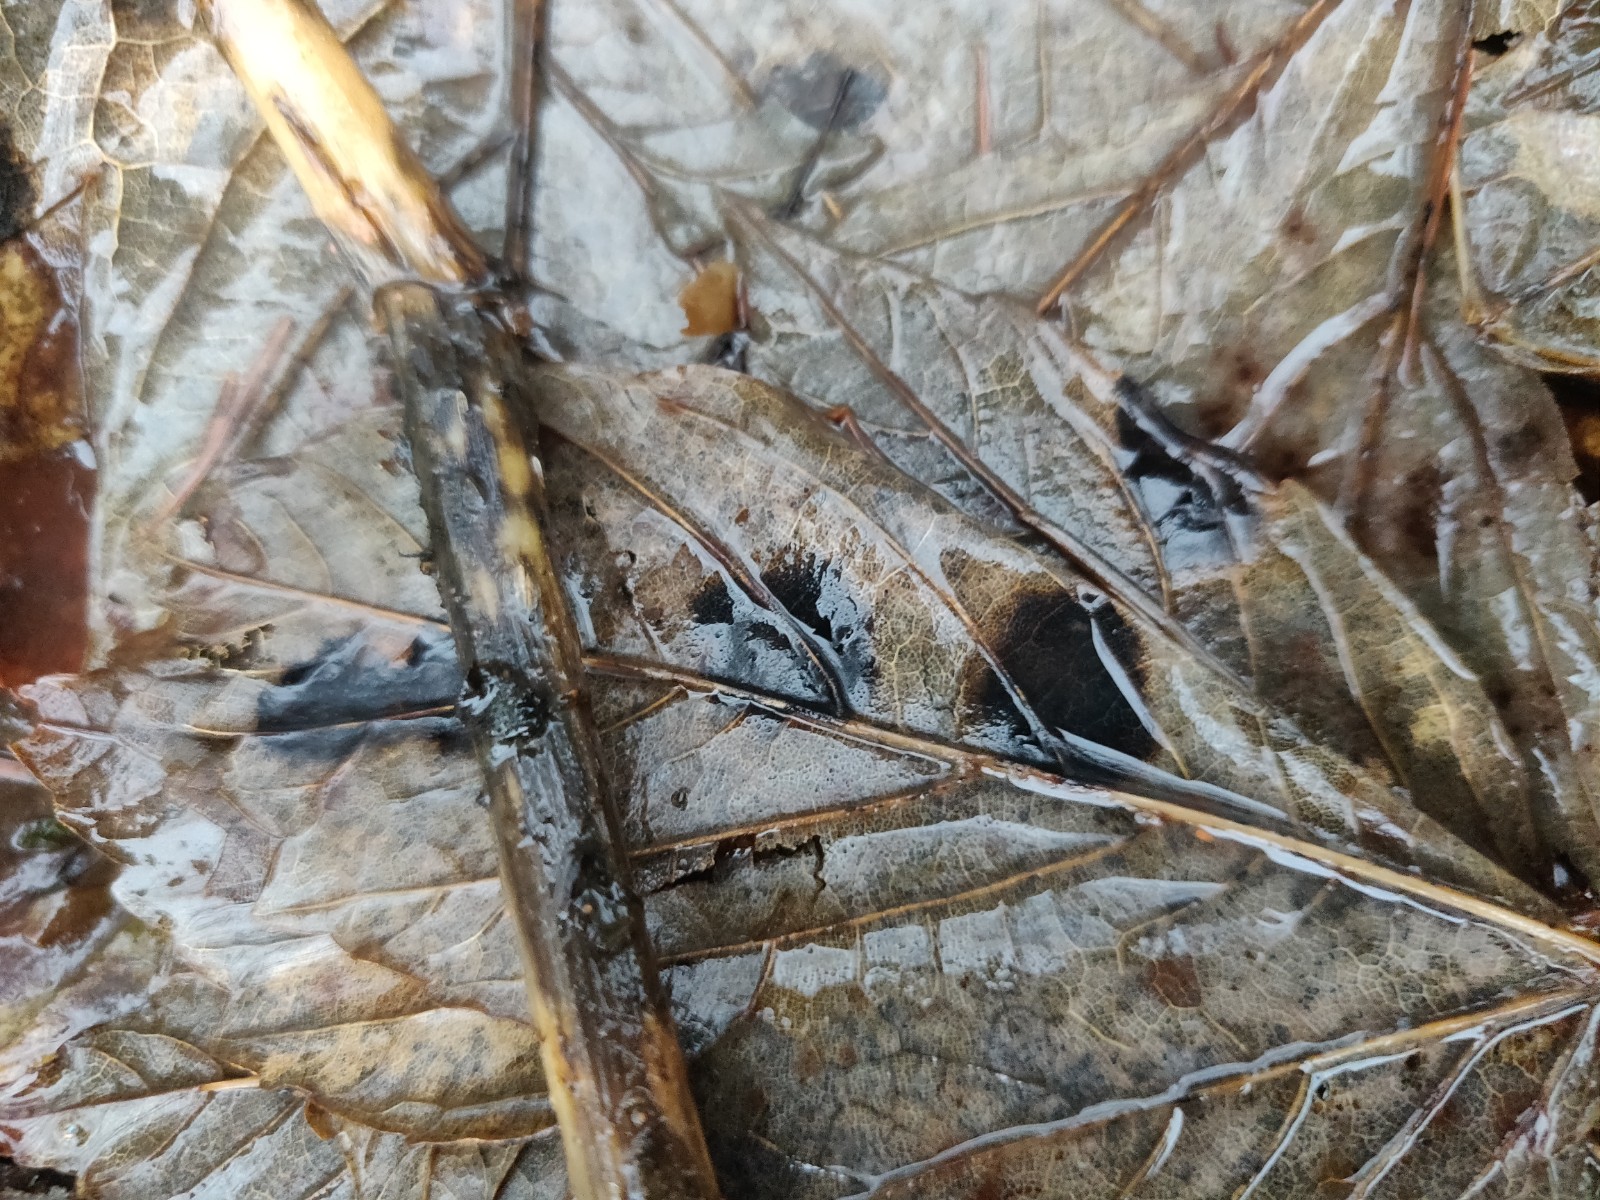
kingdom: Fungi
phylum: Ascomycota
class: Leotiomycetes
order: Rhytismatales
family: Rhytismataceae
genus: Rhytisma
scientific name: Rhytisma acerinum
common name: ahorn-rynkeplet
